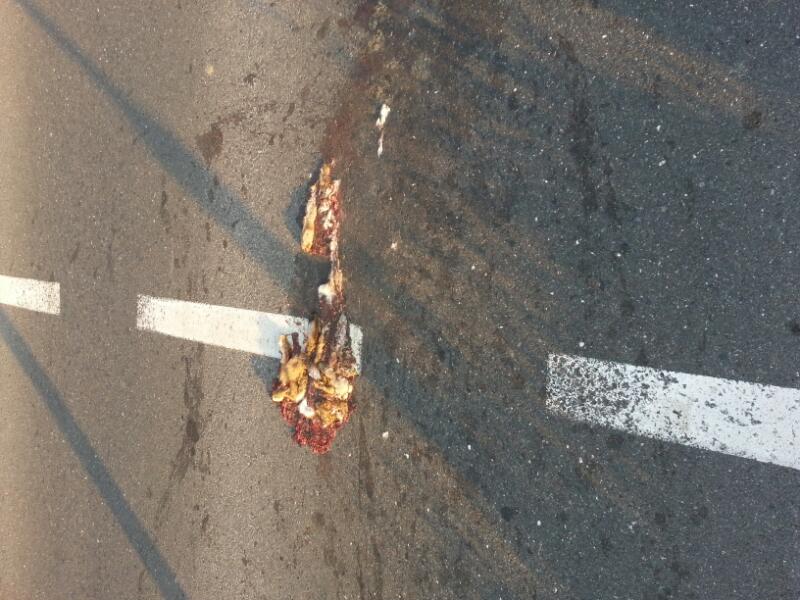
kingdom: Animalia
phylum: Chordata
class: Mammalia
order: Lagomorpha
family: Leporidae
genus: Lepus
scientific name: Lepus europaeus
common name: European hare
